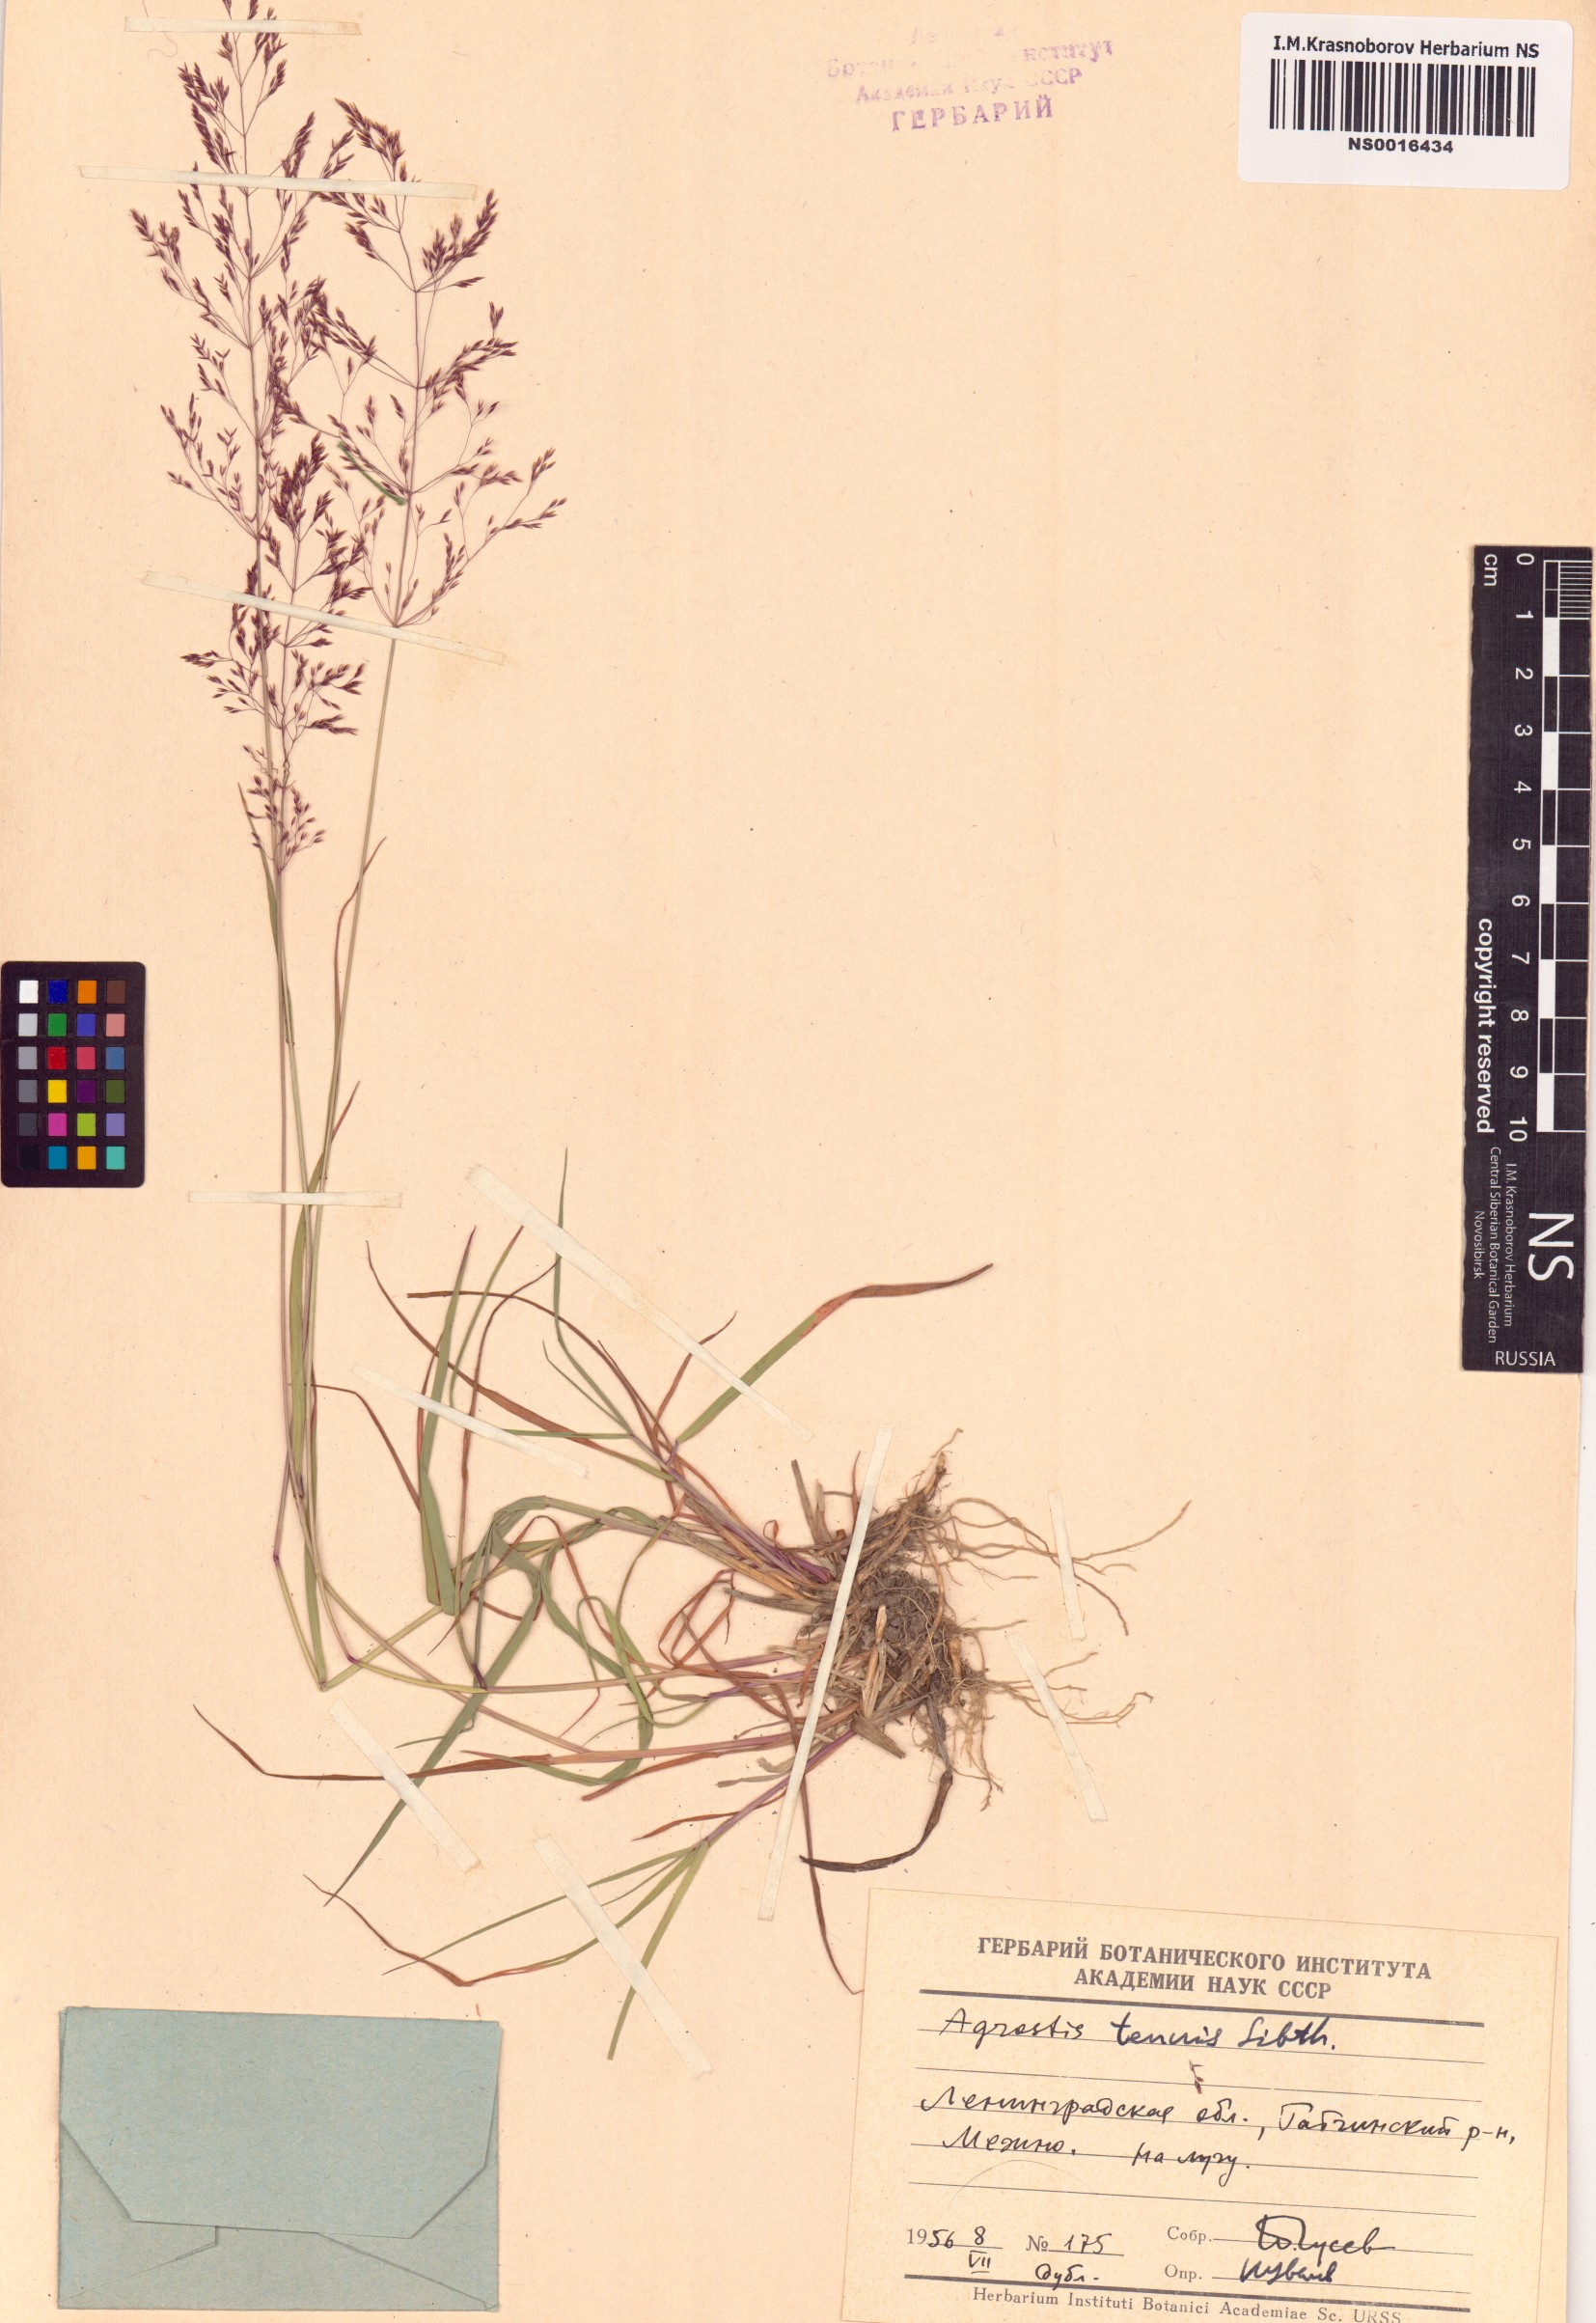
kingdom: Plantae
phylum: Tracheophyta
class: Liliopsida
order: Poales
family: Poaceae
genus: Agrostis
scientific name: Agrostis capillaris
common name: Colonial bentgrass
